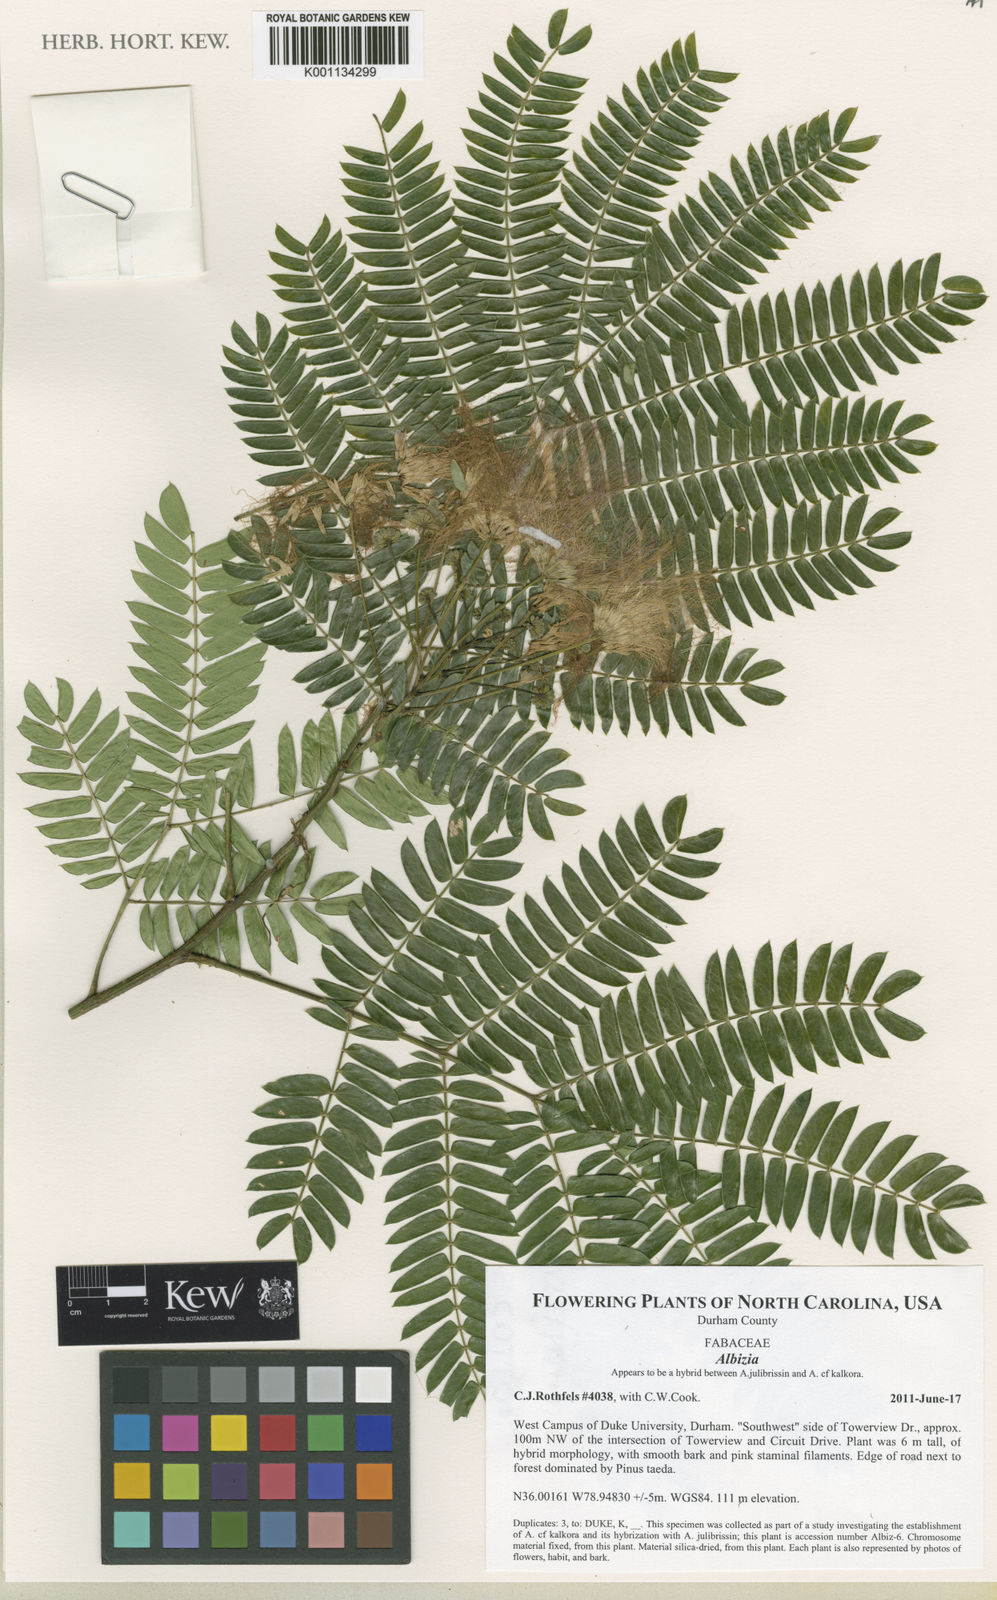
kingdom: Plantae
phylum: Tracheophyta
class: Magnoliopsida
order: Fabales
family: Fabaceae
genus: Albizia
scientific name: Albizia
